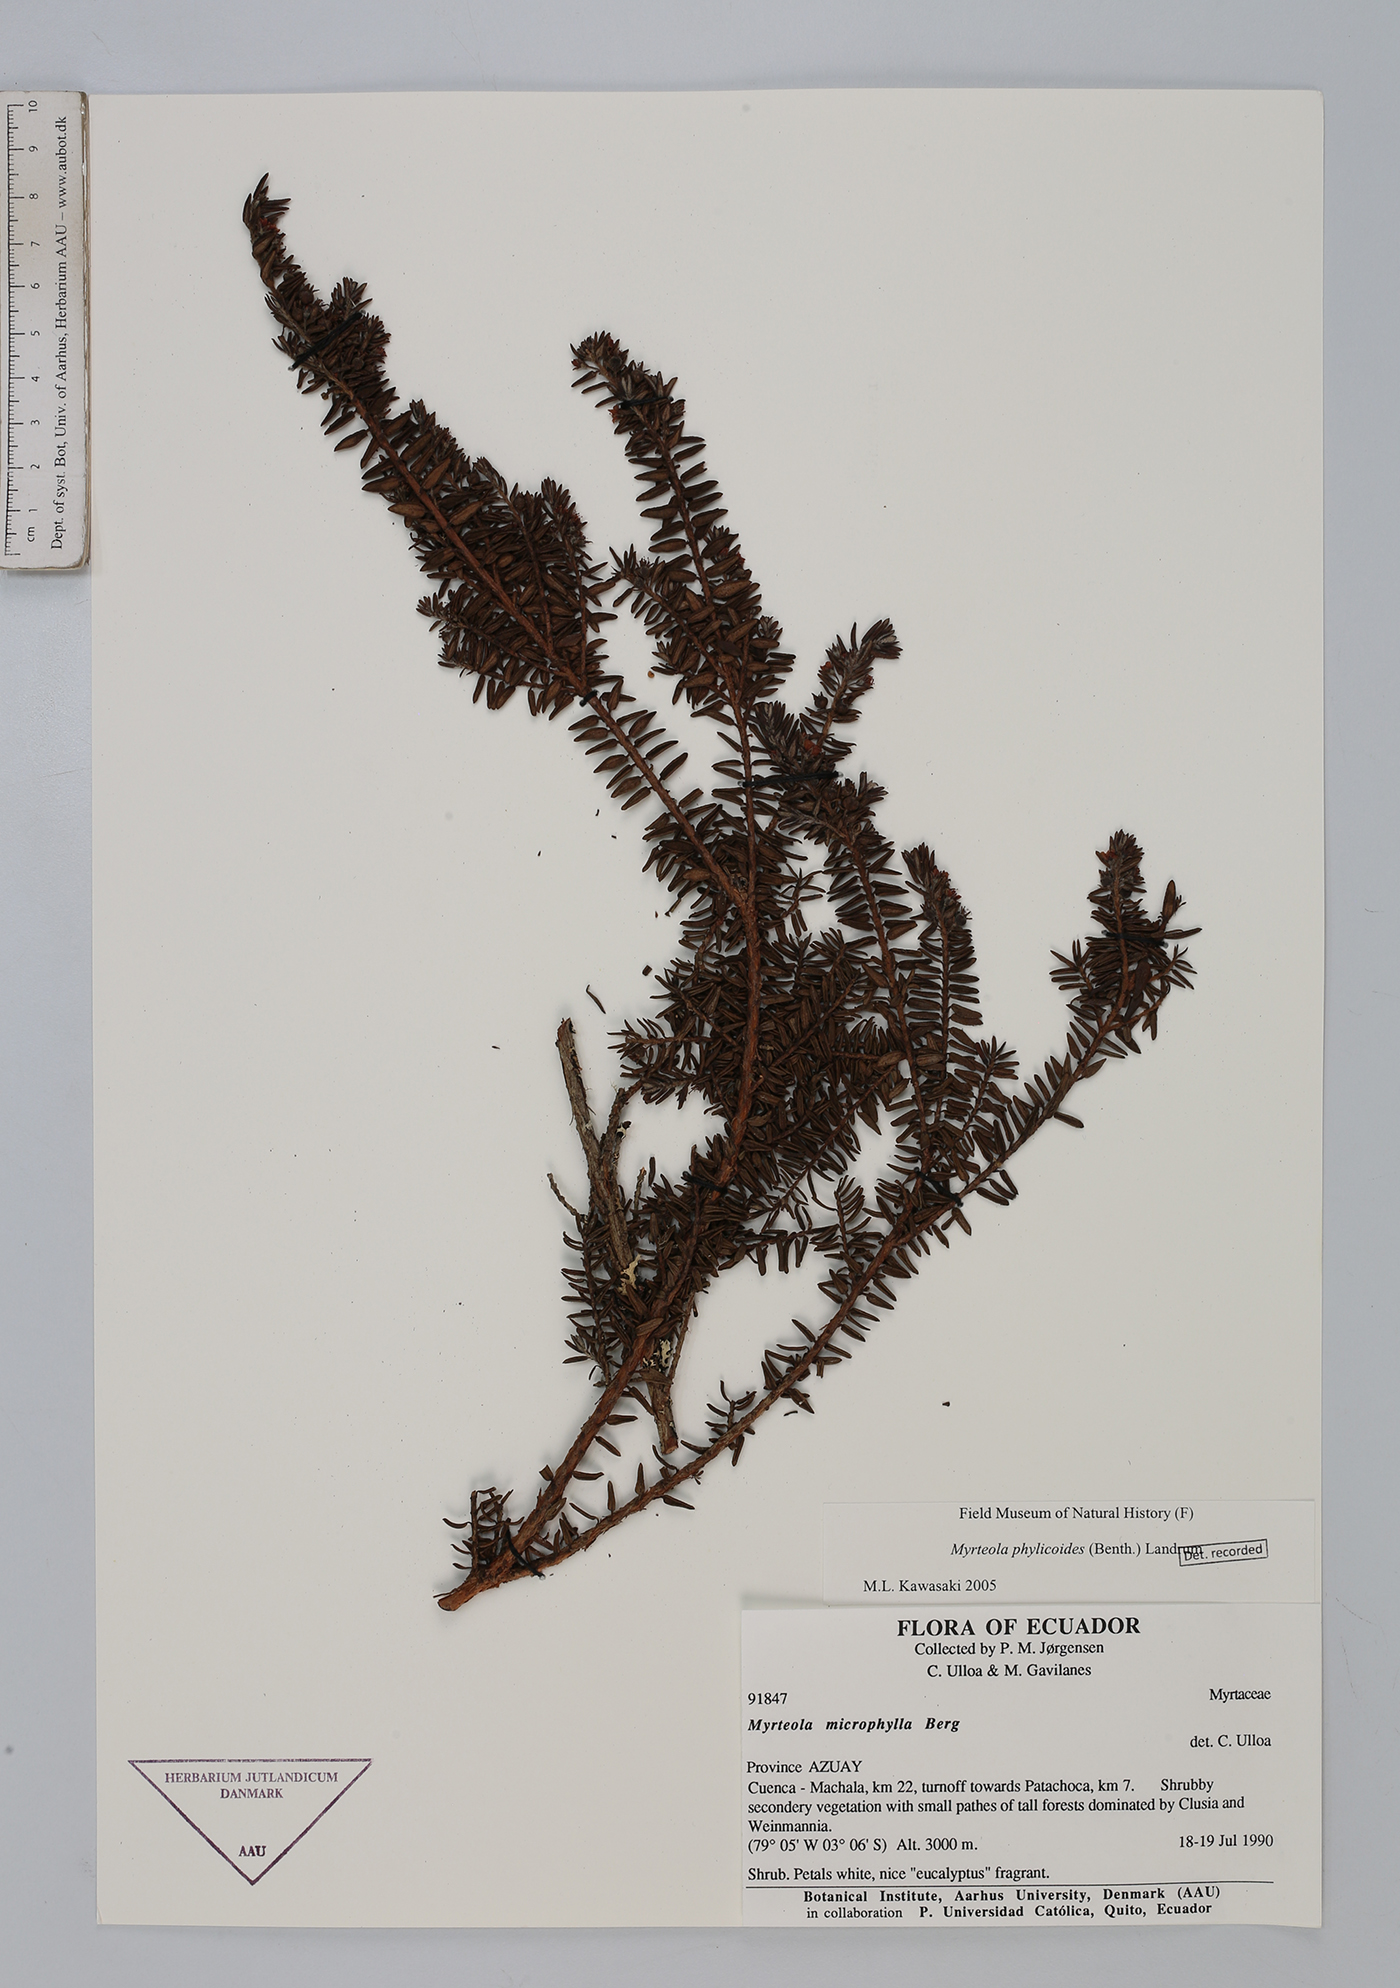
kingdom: Plantae
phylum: Tracheophyta
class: Magnoliopsida
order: Myrtales
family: Myrtaceae
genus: Myrteola
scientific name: Myrteola phylicoides
